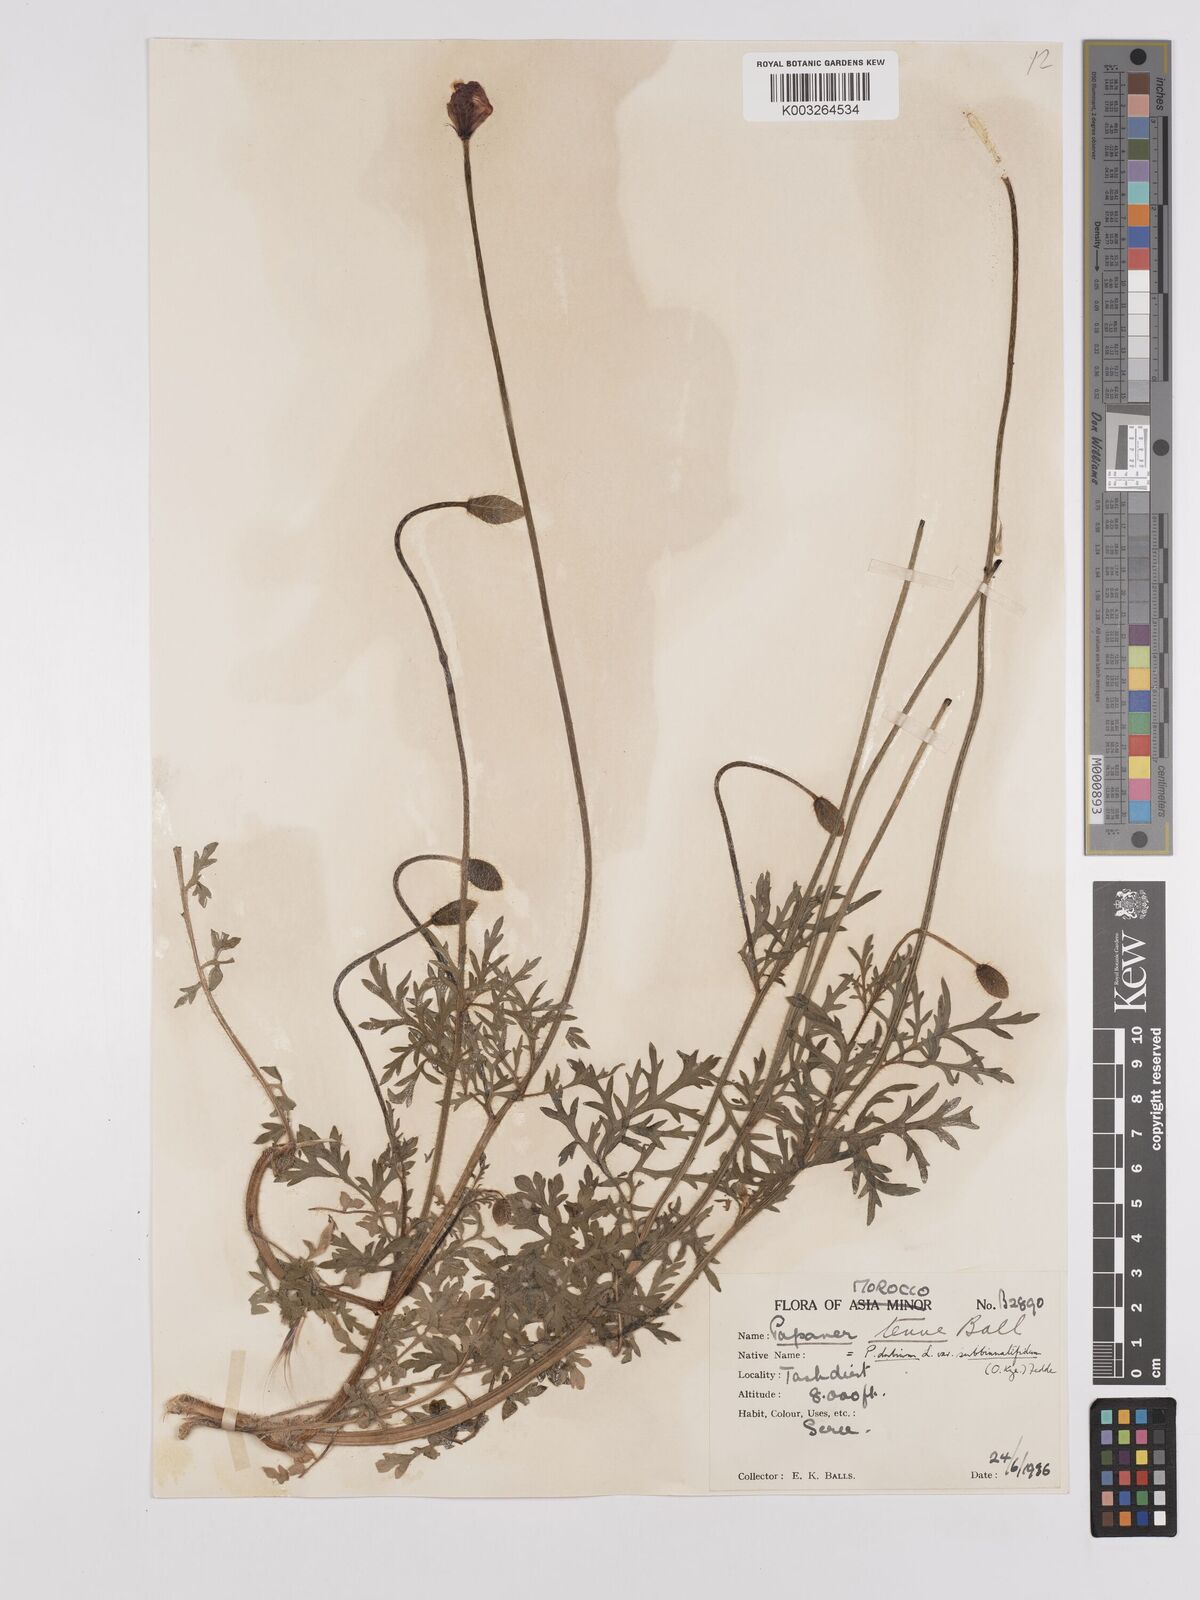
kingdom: Plantae
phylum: Tracheophyta
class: Magnoliopsida
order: Ranunculales
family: Papaveraceae
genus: Papaver
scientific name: Papaver dubium
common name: Long-headed poppy
